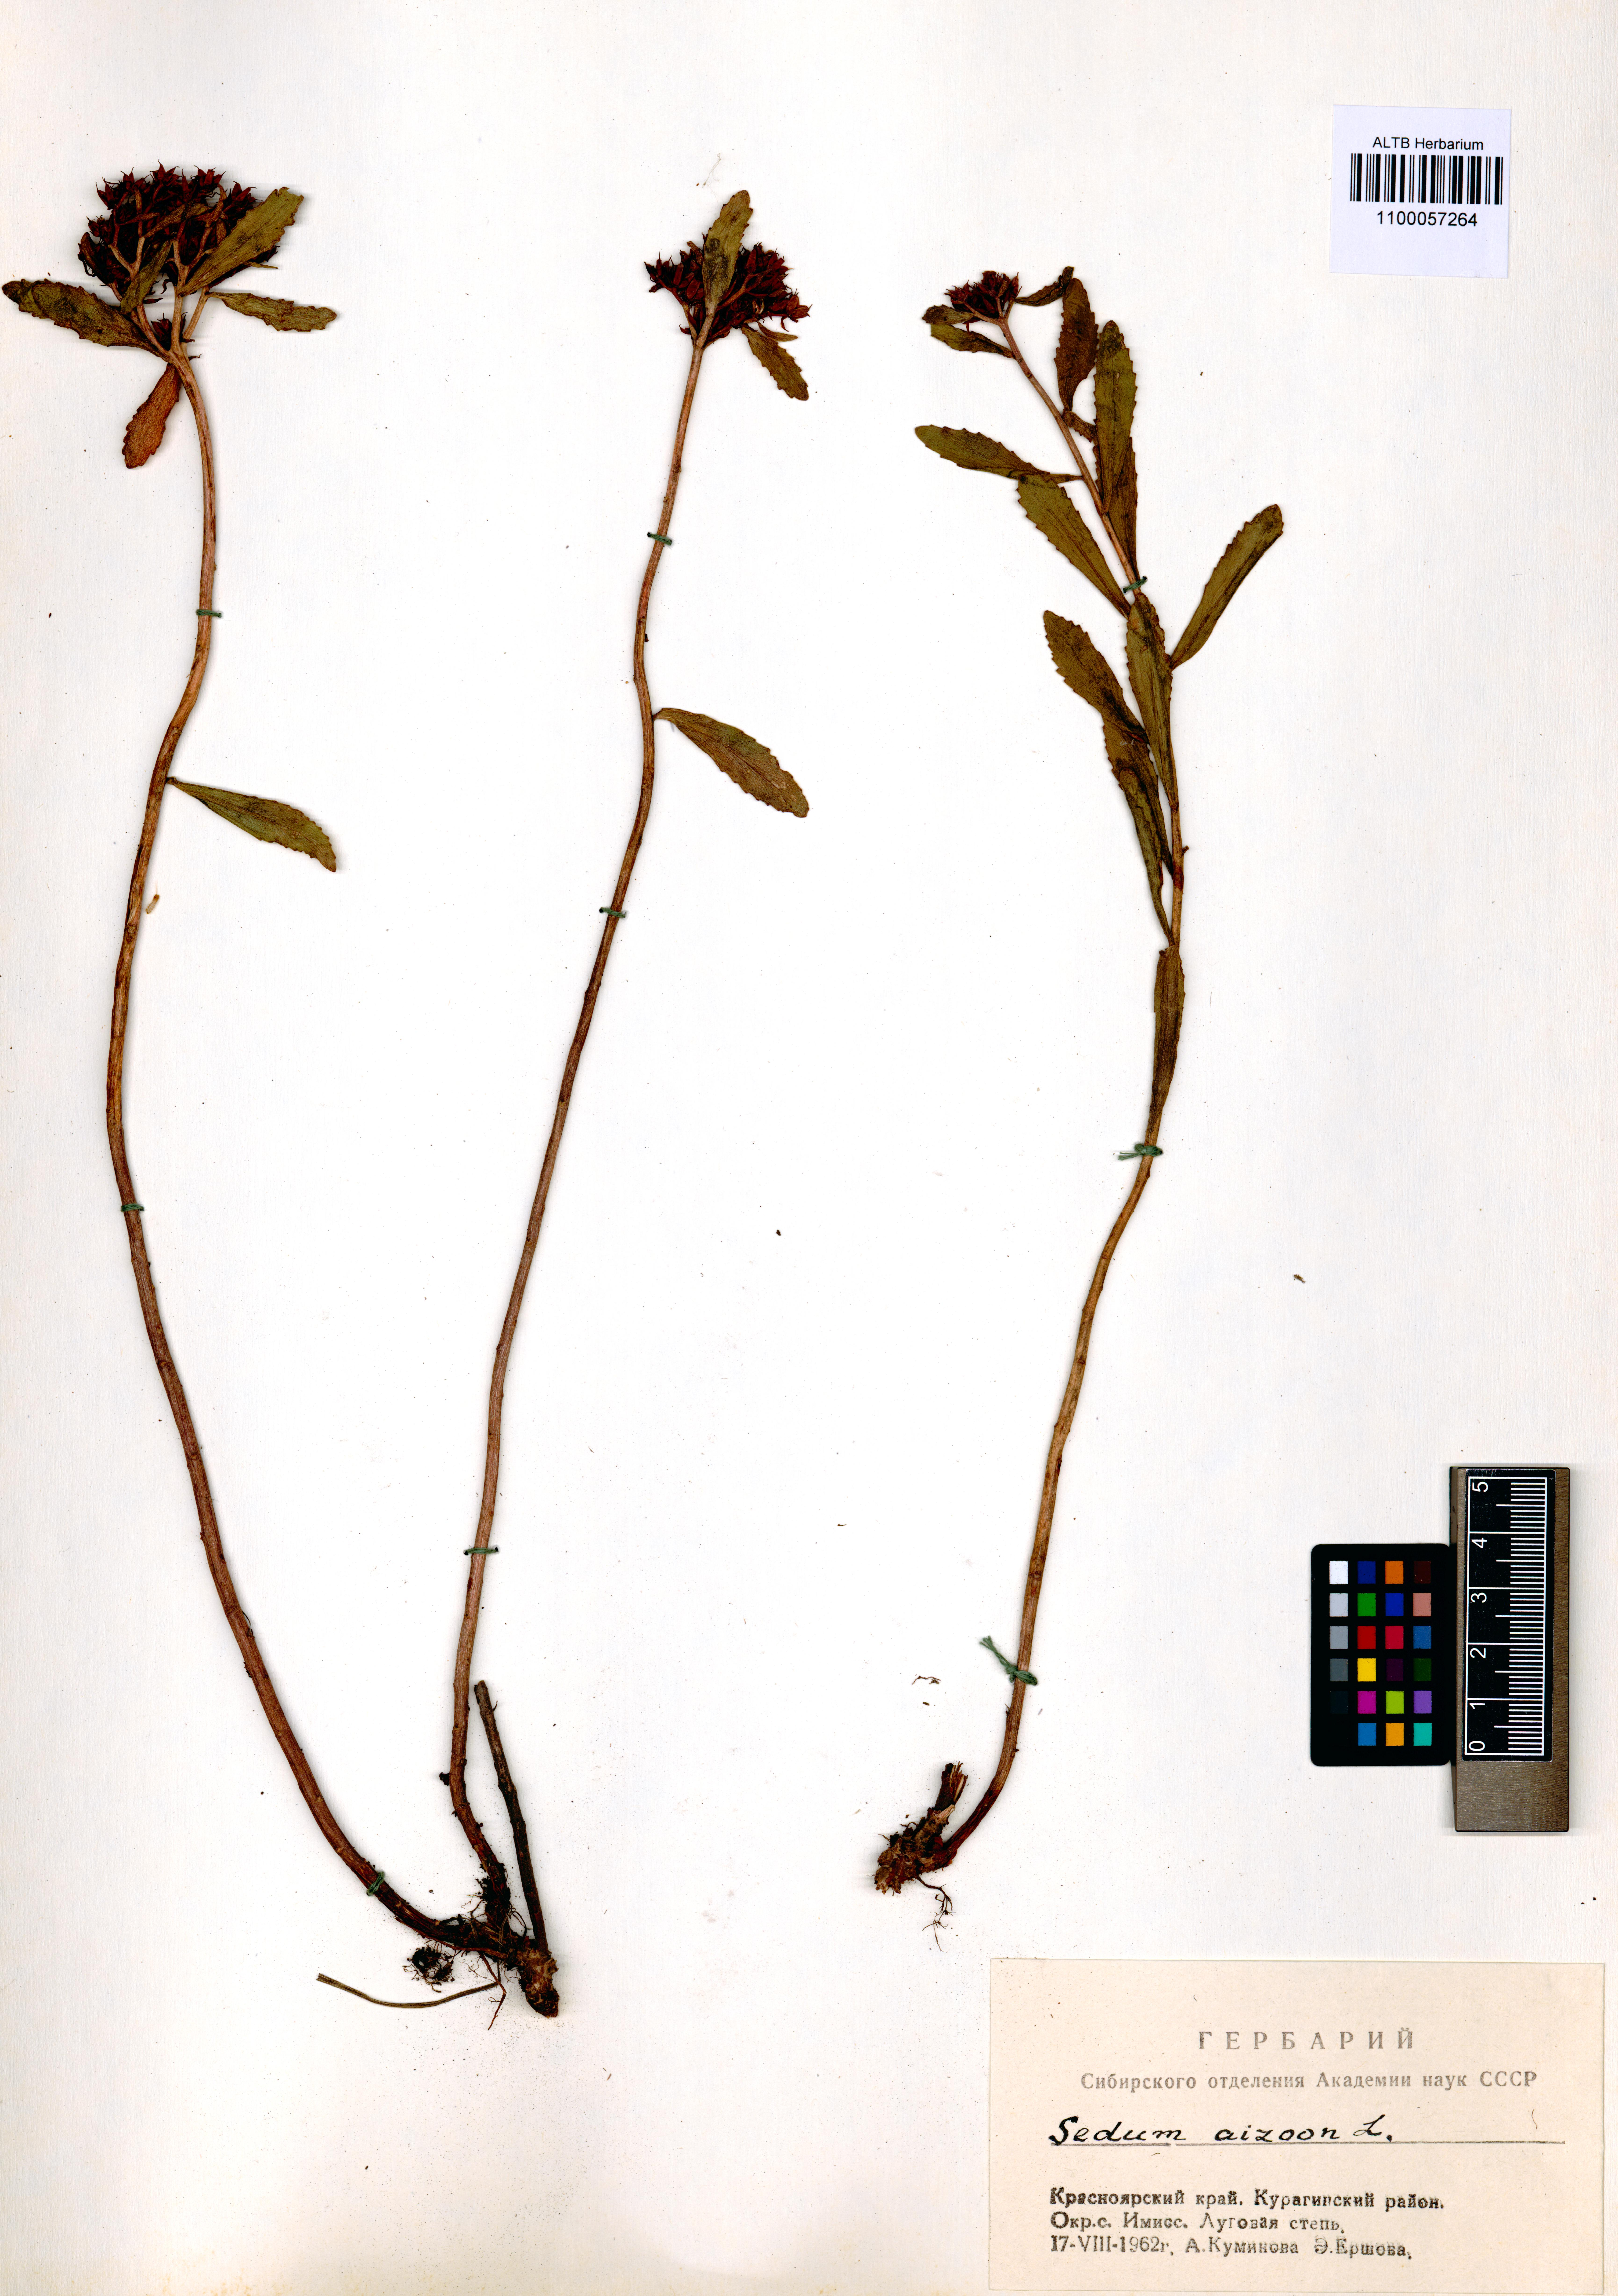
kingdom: Plantae
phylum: Tracheophyta
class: Magnoliopsida
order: Saxifragales
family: Crassulaceae
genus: Phedimus
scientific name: Phedimus aizoon
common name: Orpin aizoon
